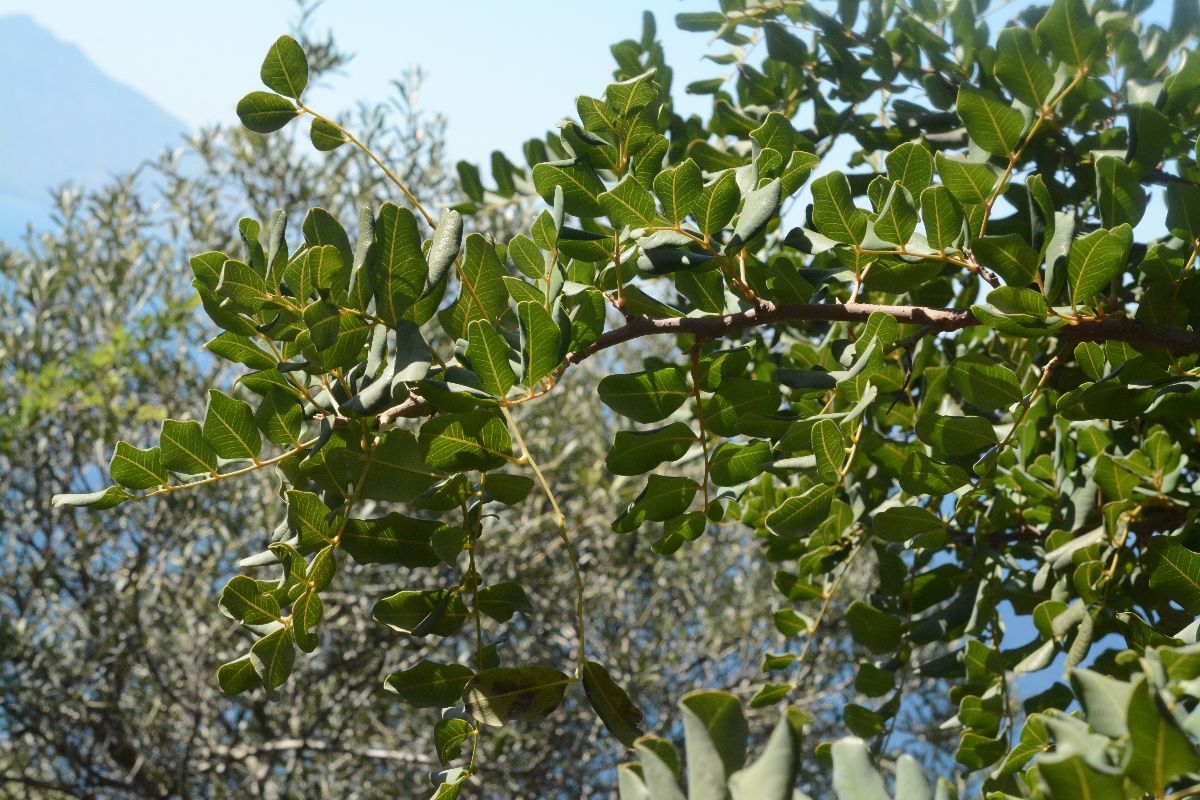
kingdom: Plantae
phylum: Tracheophyta
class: Magnoliopsida
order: Sapindales
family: Anacardiaceae
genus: Pistacia
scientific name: Pistacia lentiscus
